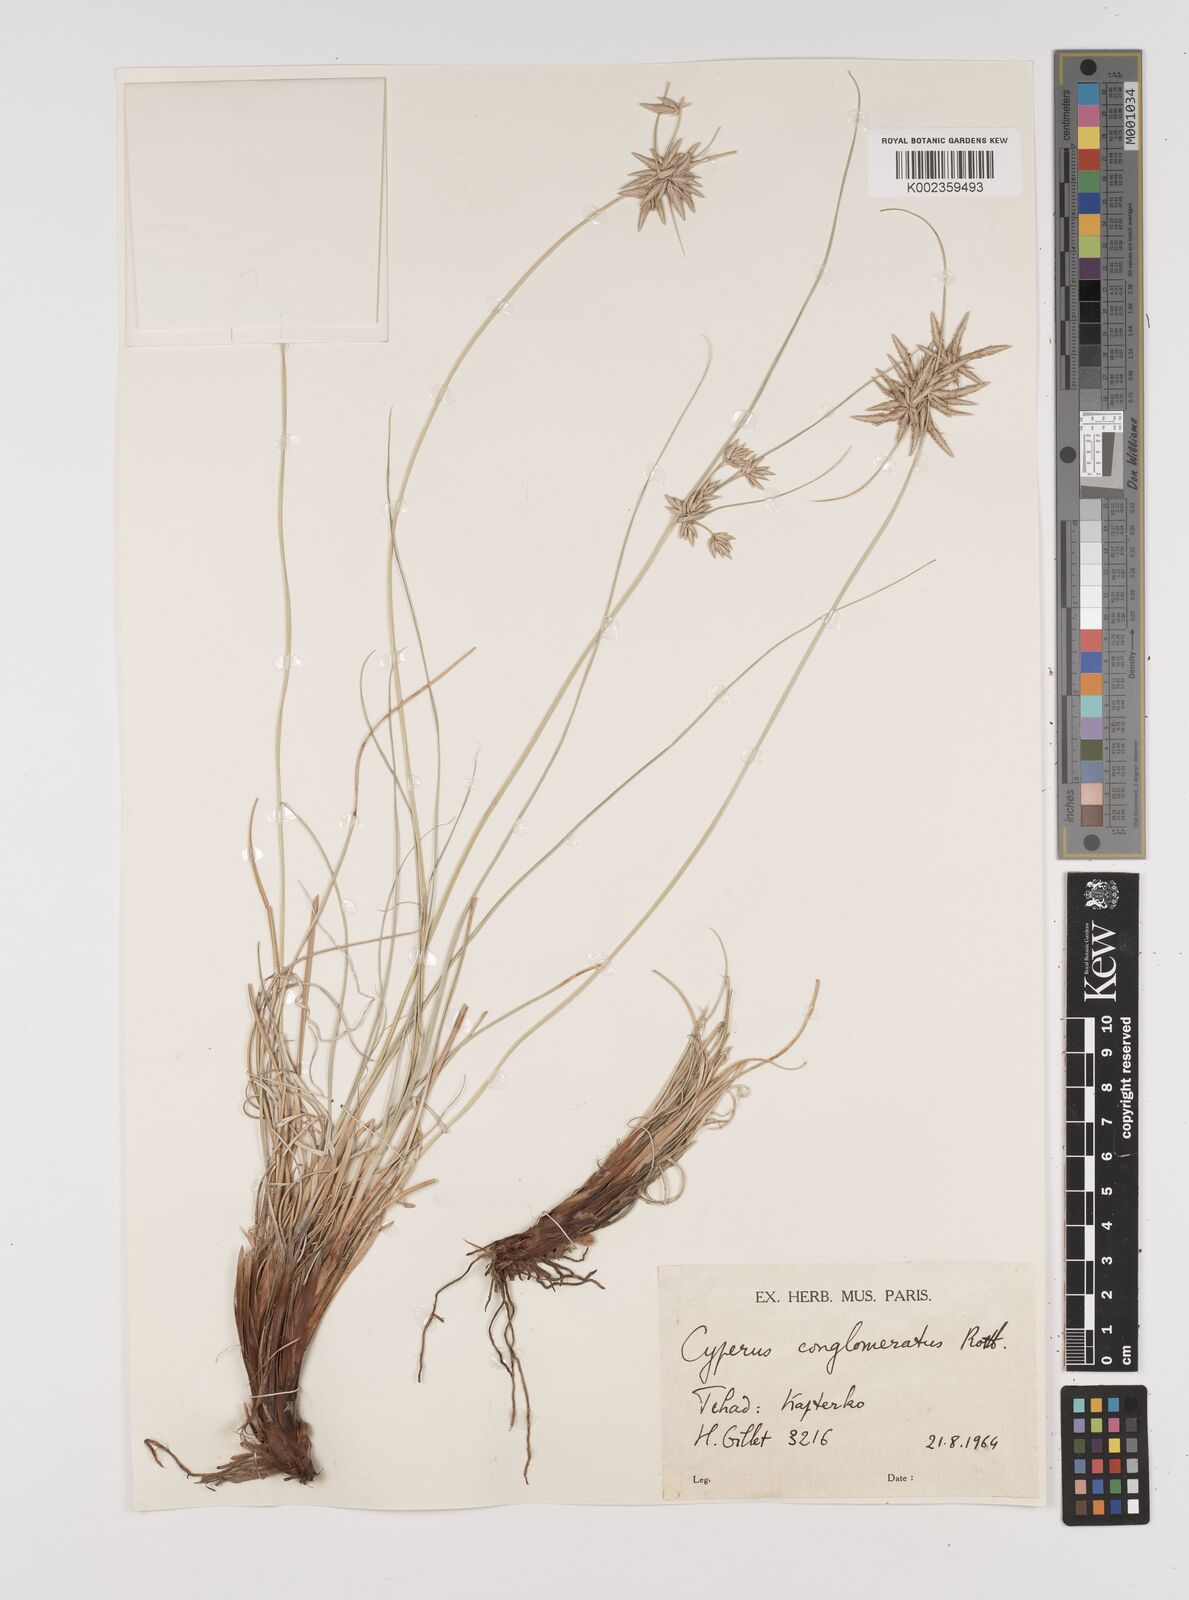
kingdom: Plantae
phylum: Tracheophyta
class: Liliopsida
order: Poales
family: Cyperaceae
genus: Cyperus
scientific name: Cyperus conglomeratus
